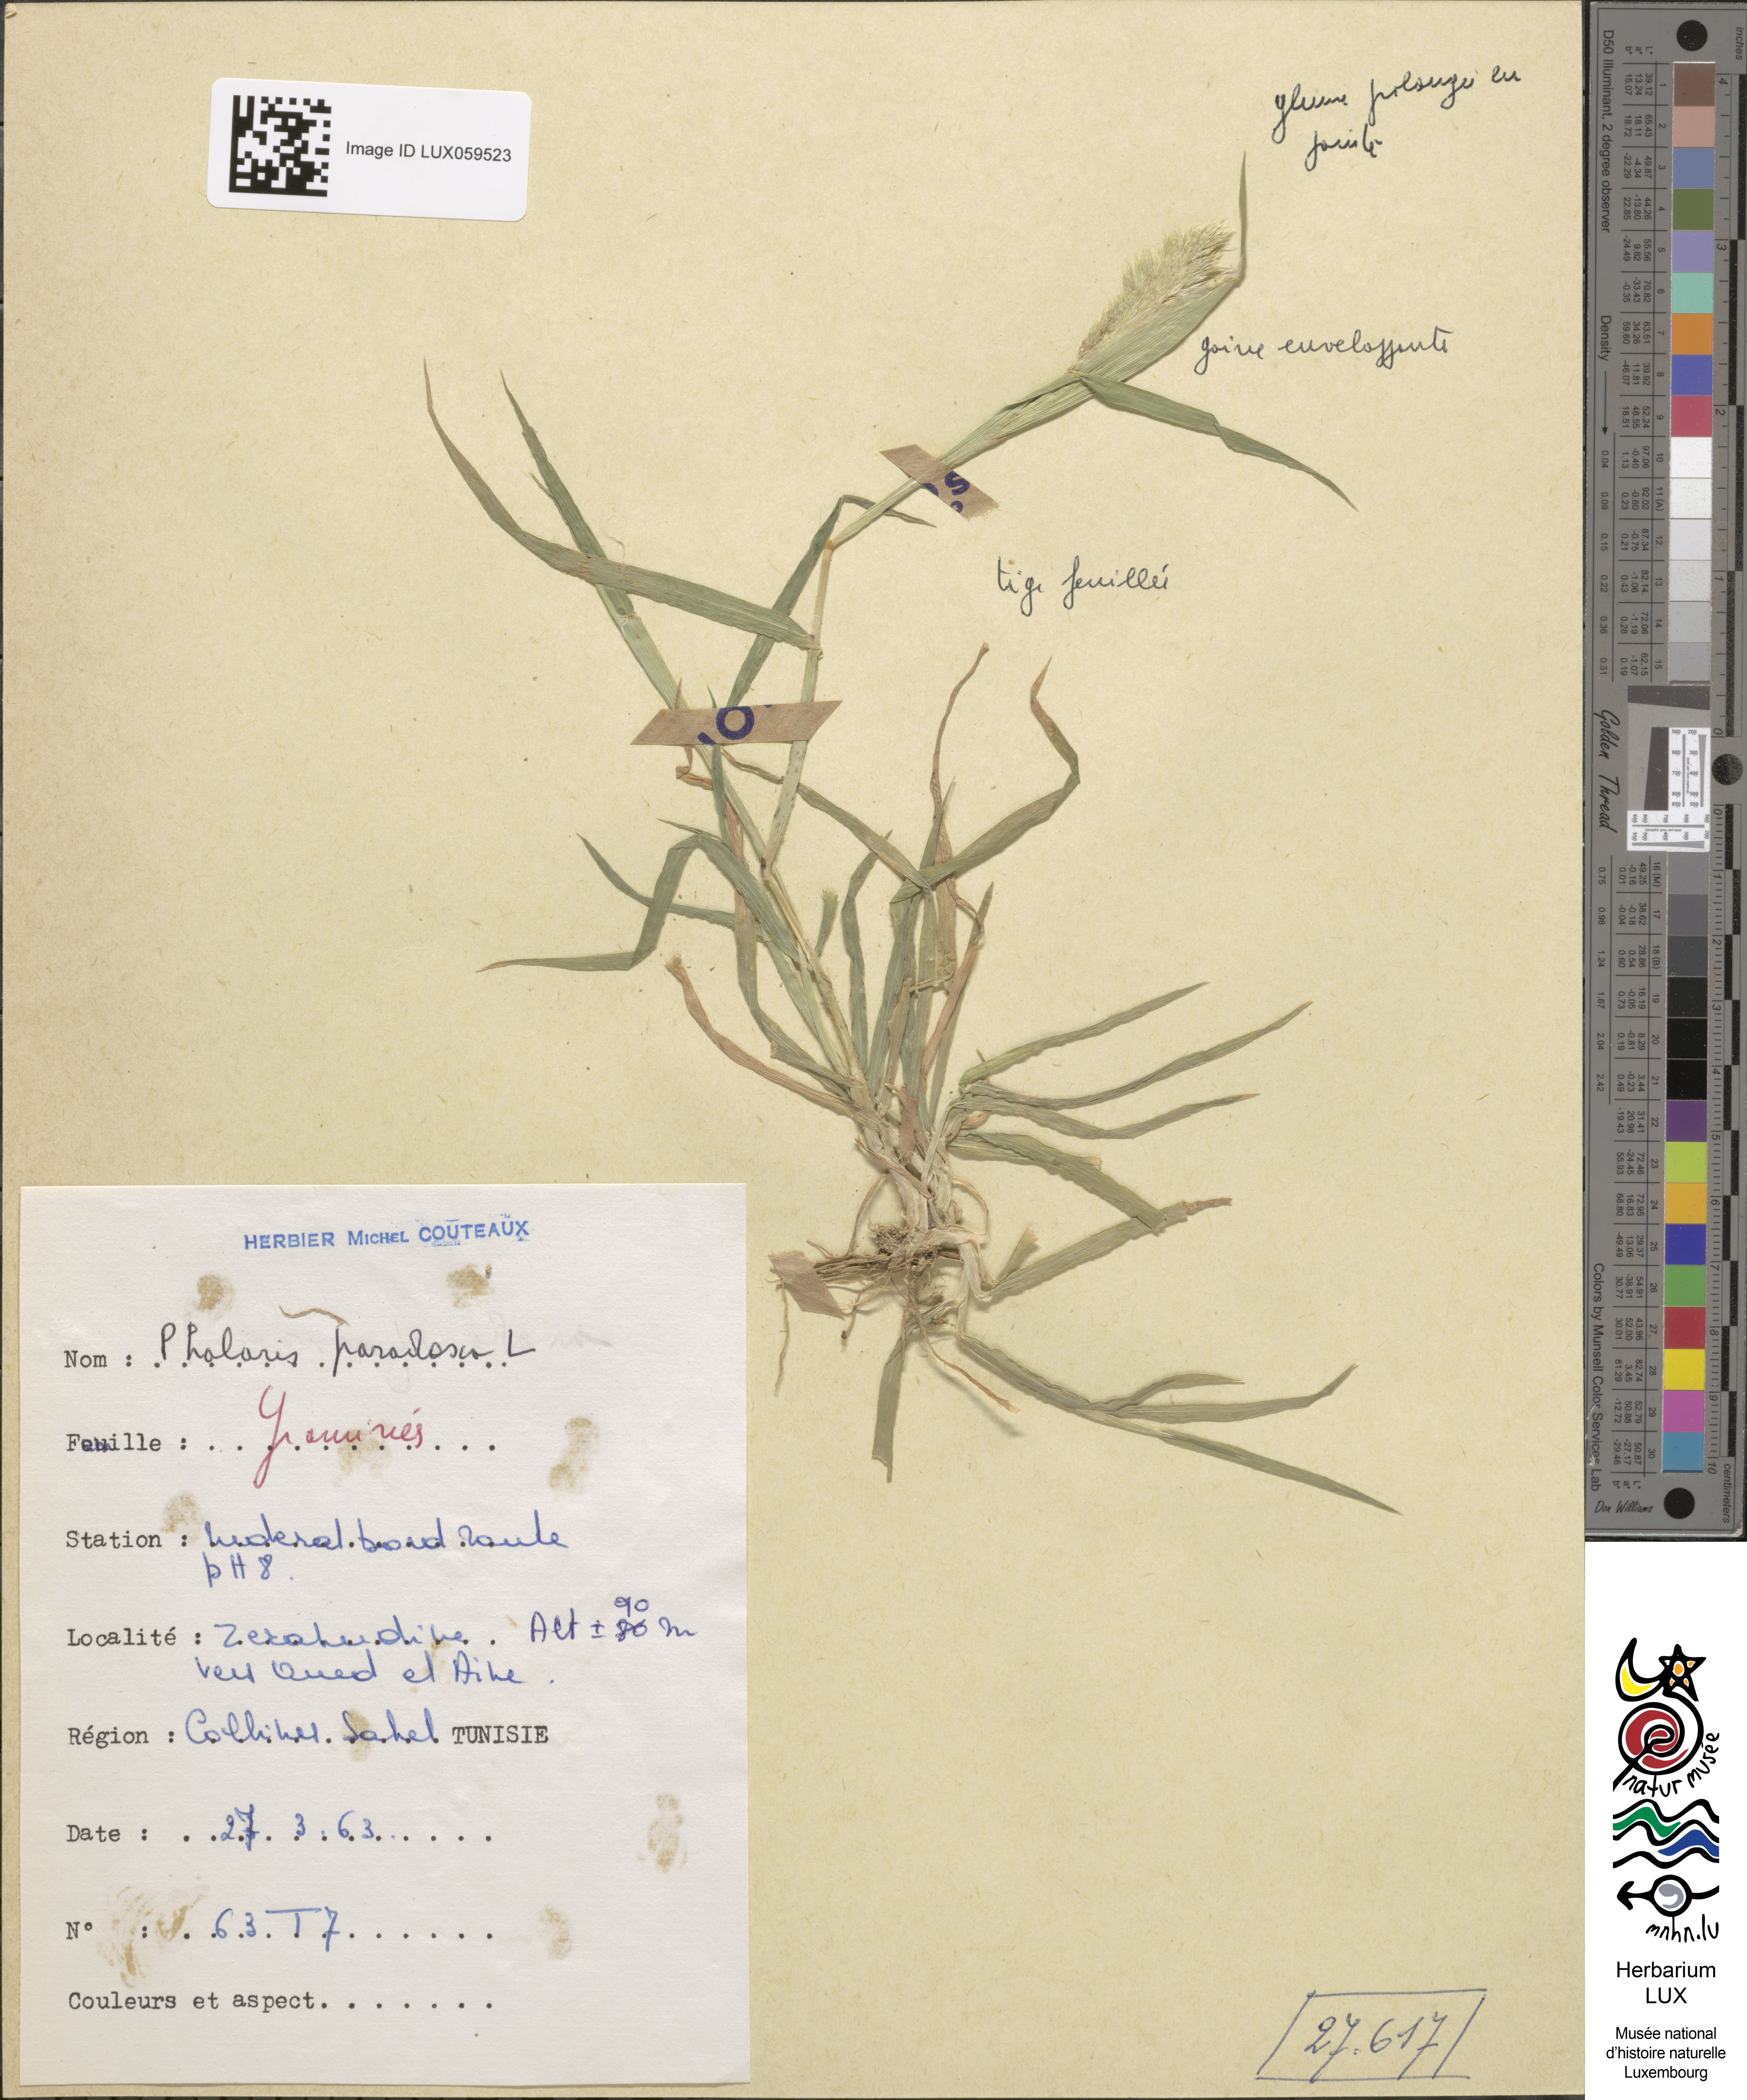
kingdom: Plantae
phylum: Tracheophyta
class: Liliopsida
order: Poales
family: Poaceae
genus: Phalaris
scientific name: Phalaris paradoxa
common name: Awned canary-grass
